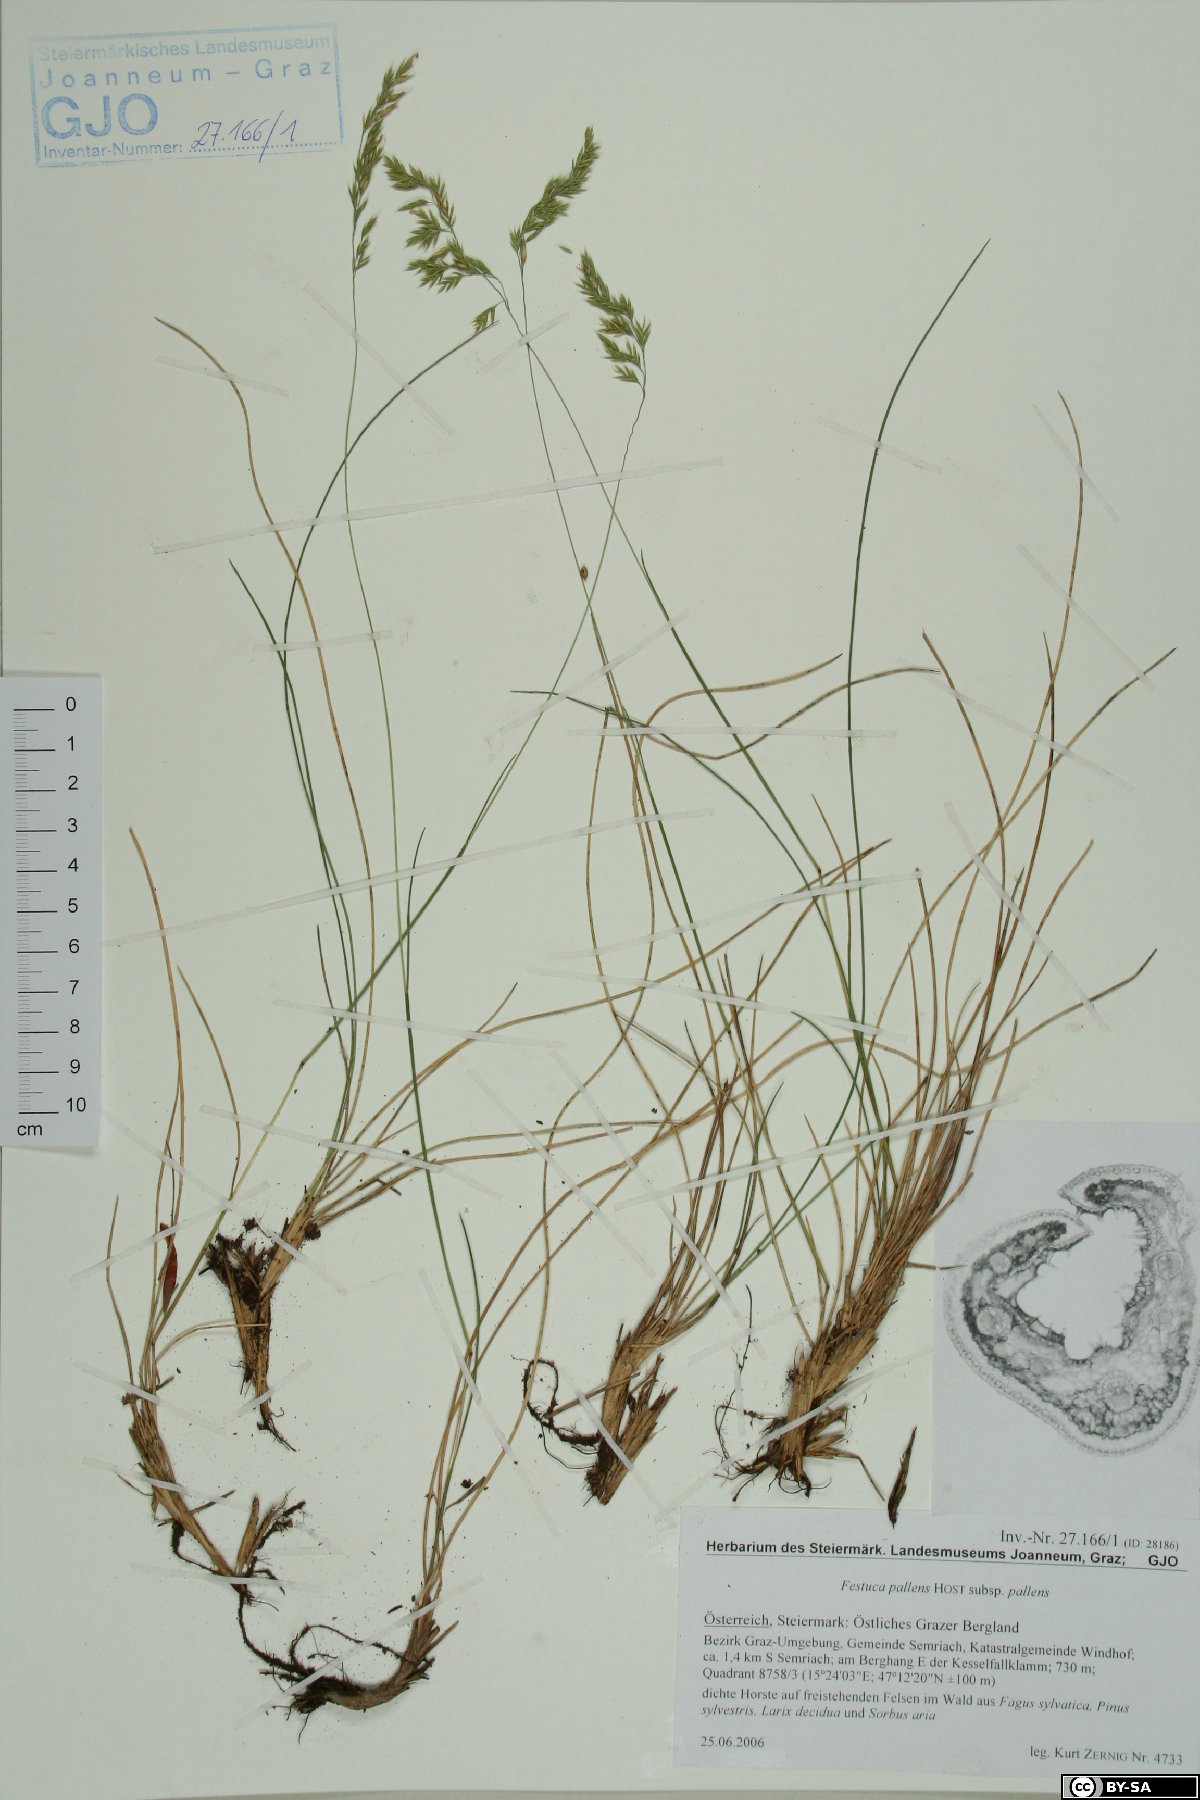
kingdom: Plantae
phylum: Tracheophyta
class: Liliopsida
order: Poales
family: Poaceae
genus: Festuca
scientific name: Festuca pallens
